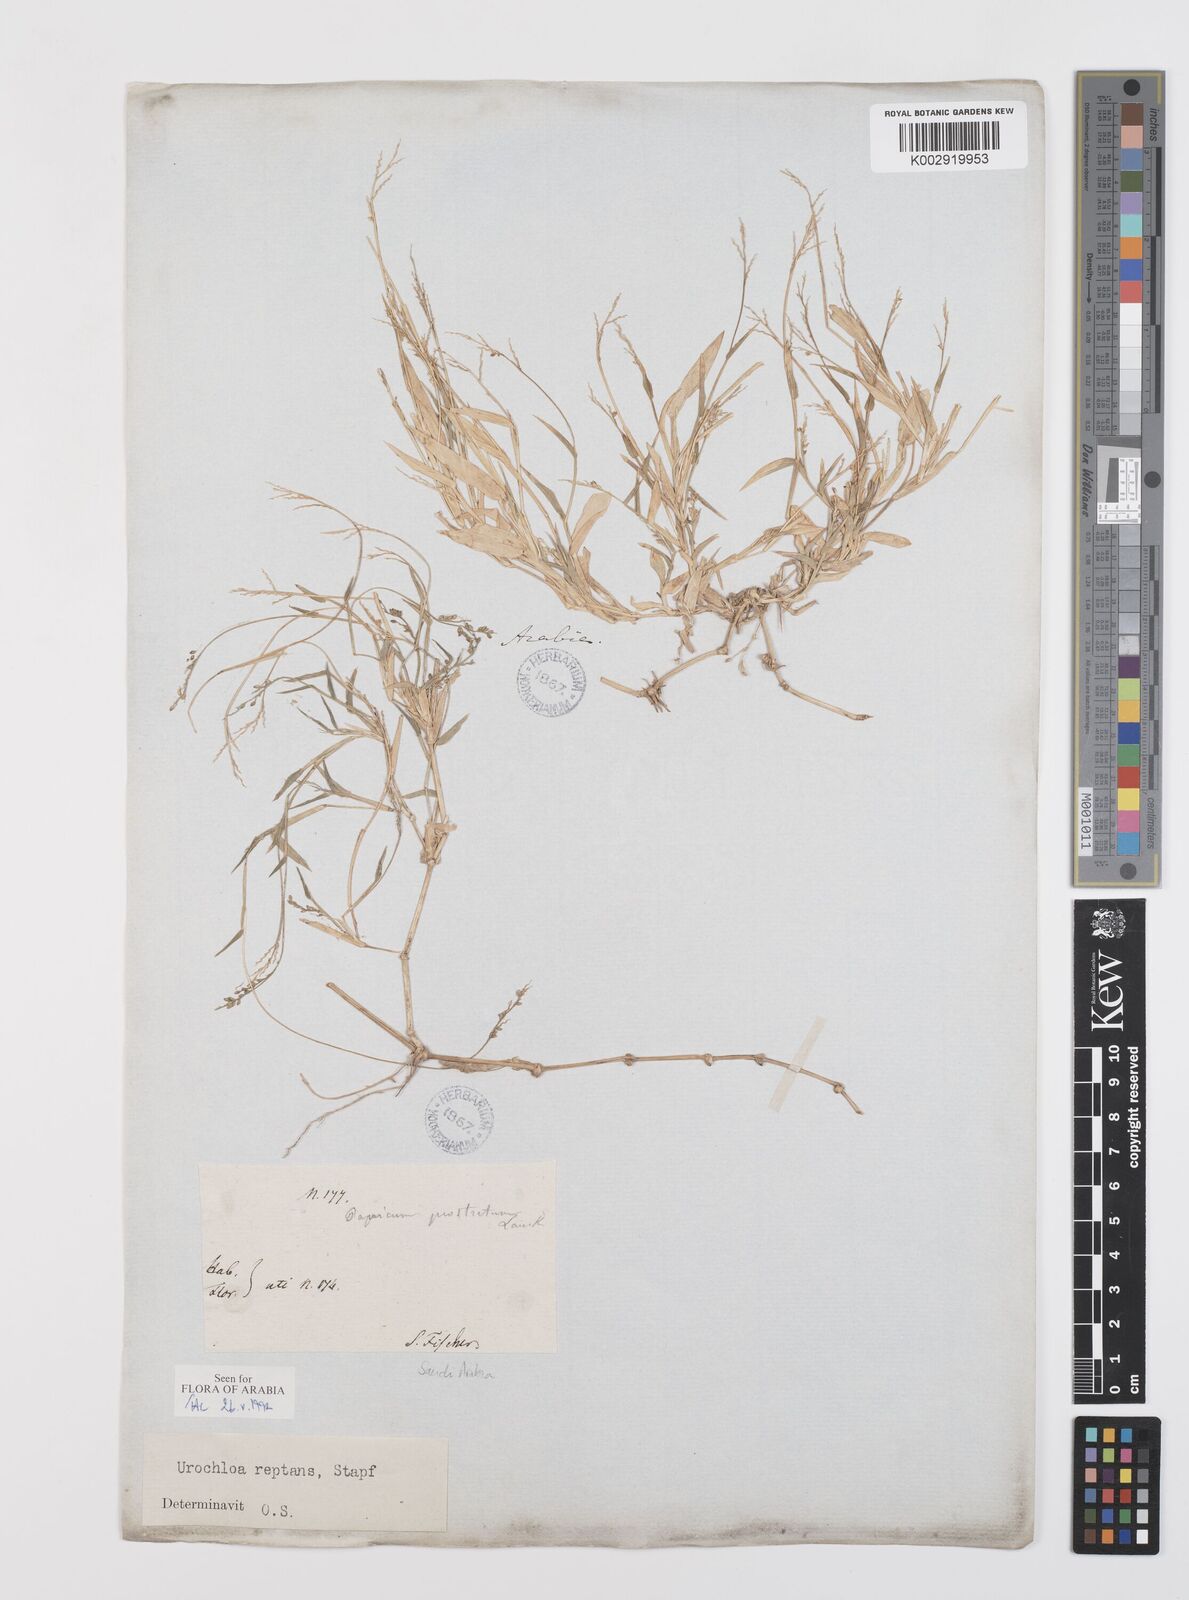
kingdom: Plantae
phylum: Tracheophyta
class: Liliopsida
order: Poales
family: Poaceae
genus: Urochloa
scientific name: Urochloa reptans
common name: Sprawling signalgrass
